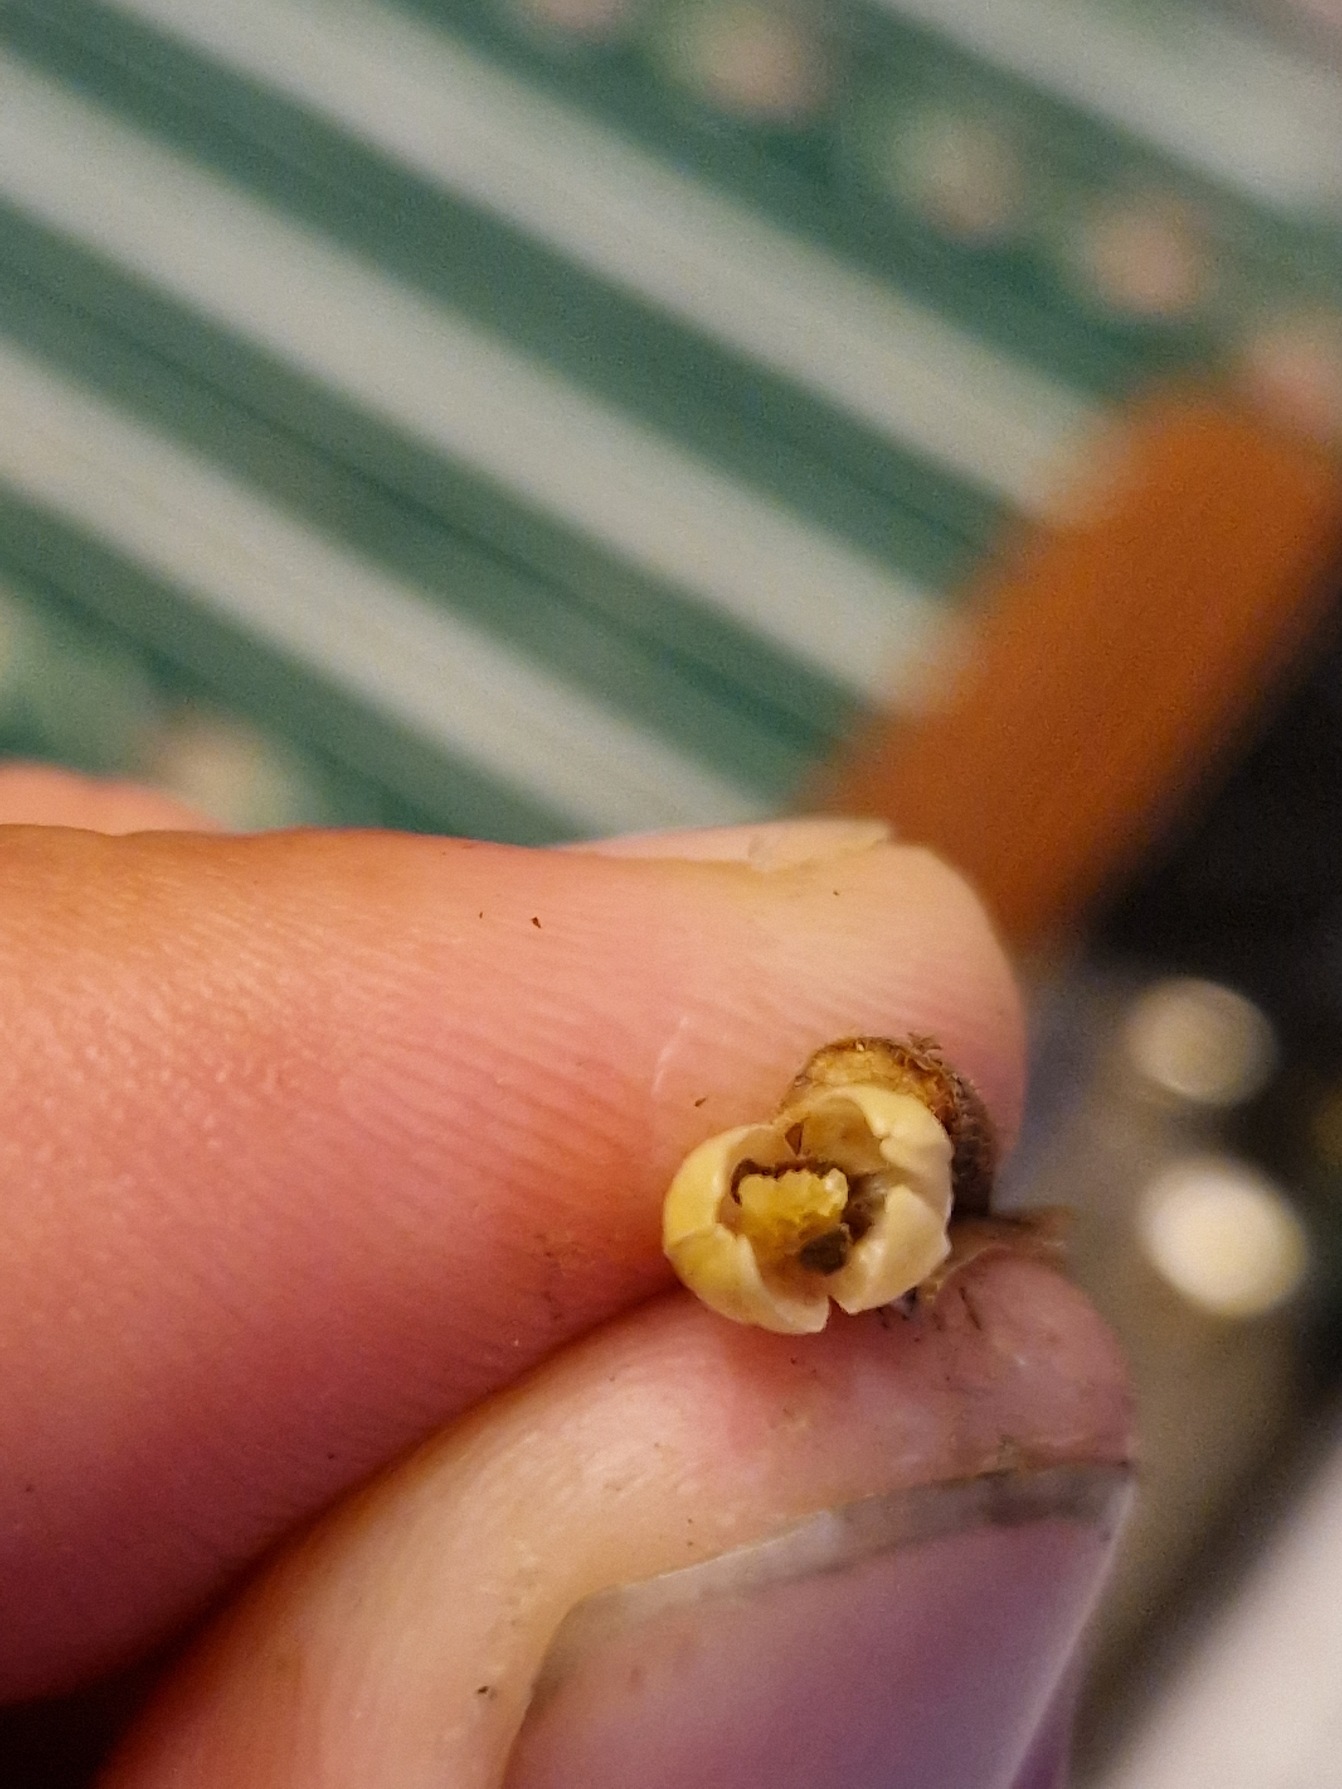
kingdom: Plantae
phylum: Tracheophyta
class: Magnoliopsida
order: Ericales
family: Primulaceae
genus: Primula
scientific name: Primula veris
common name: Hulkravet kodriver
